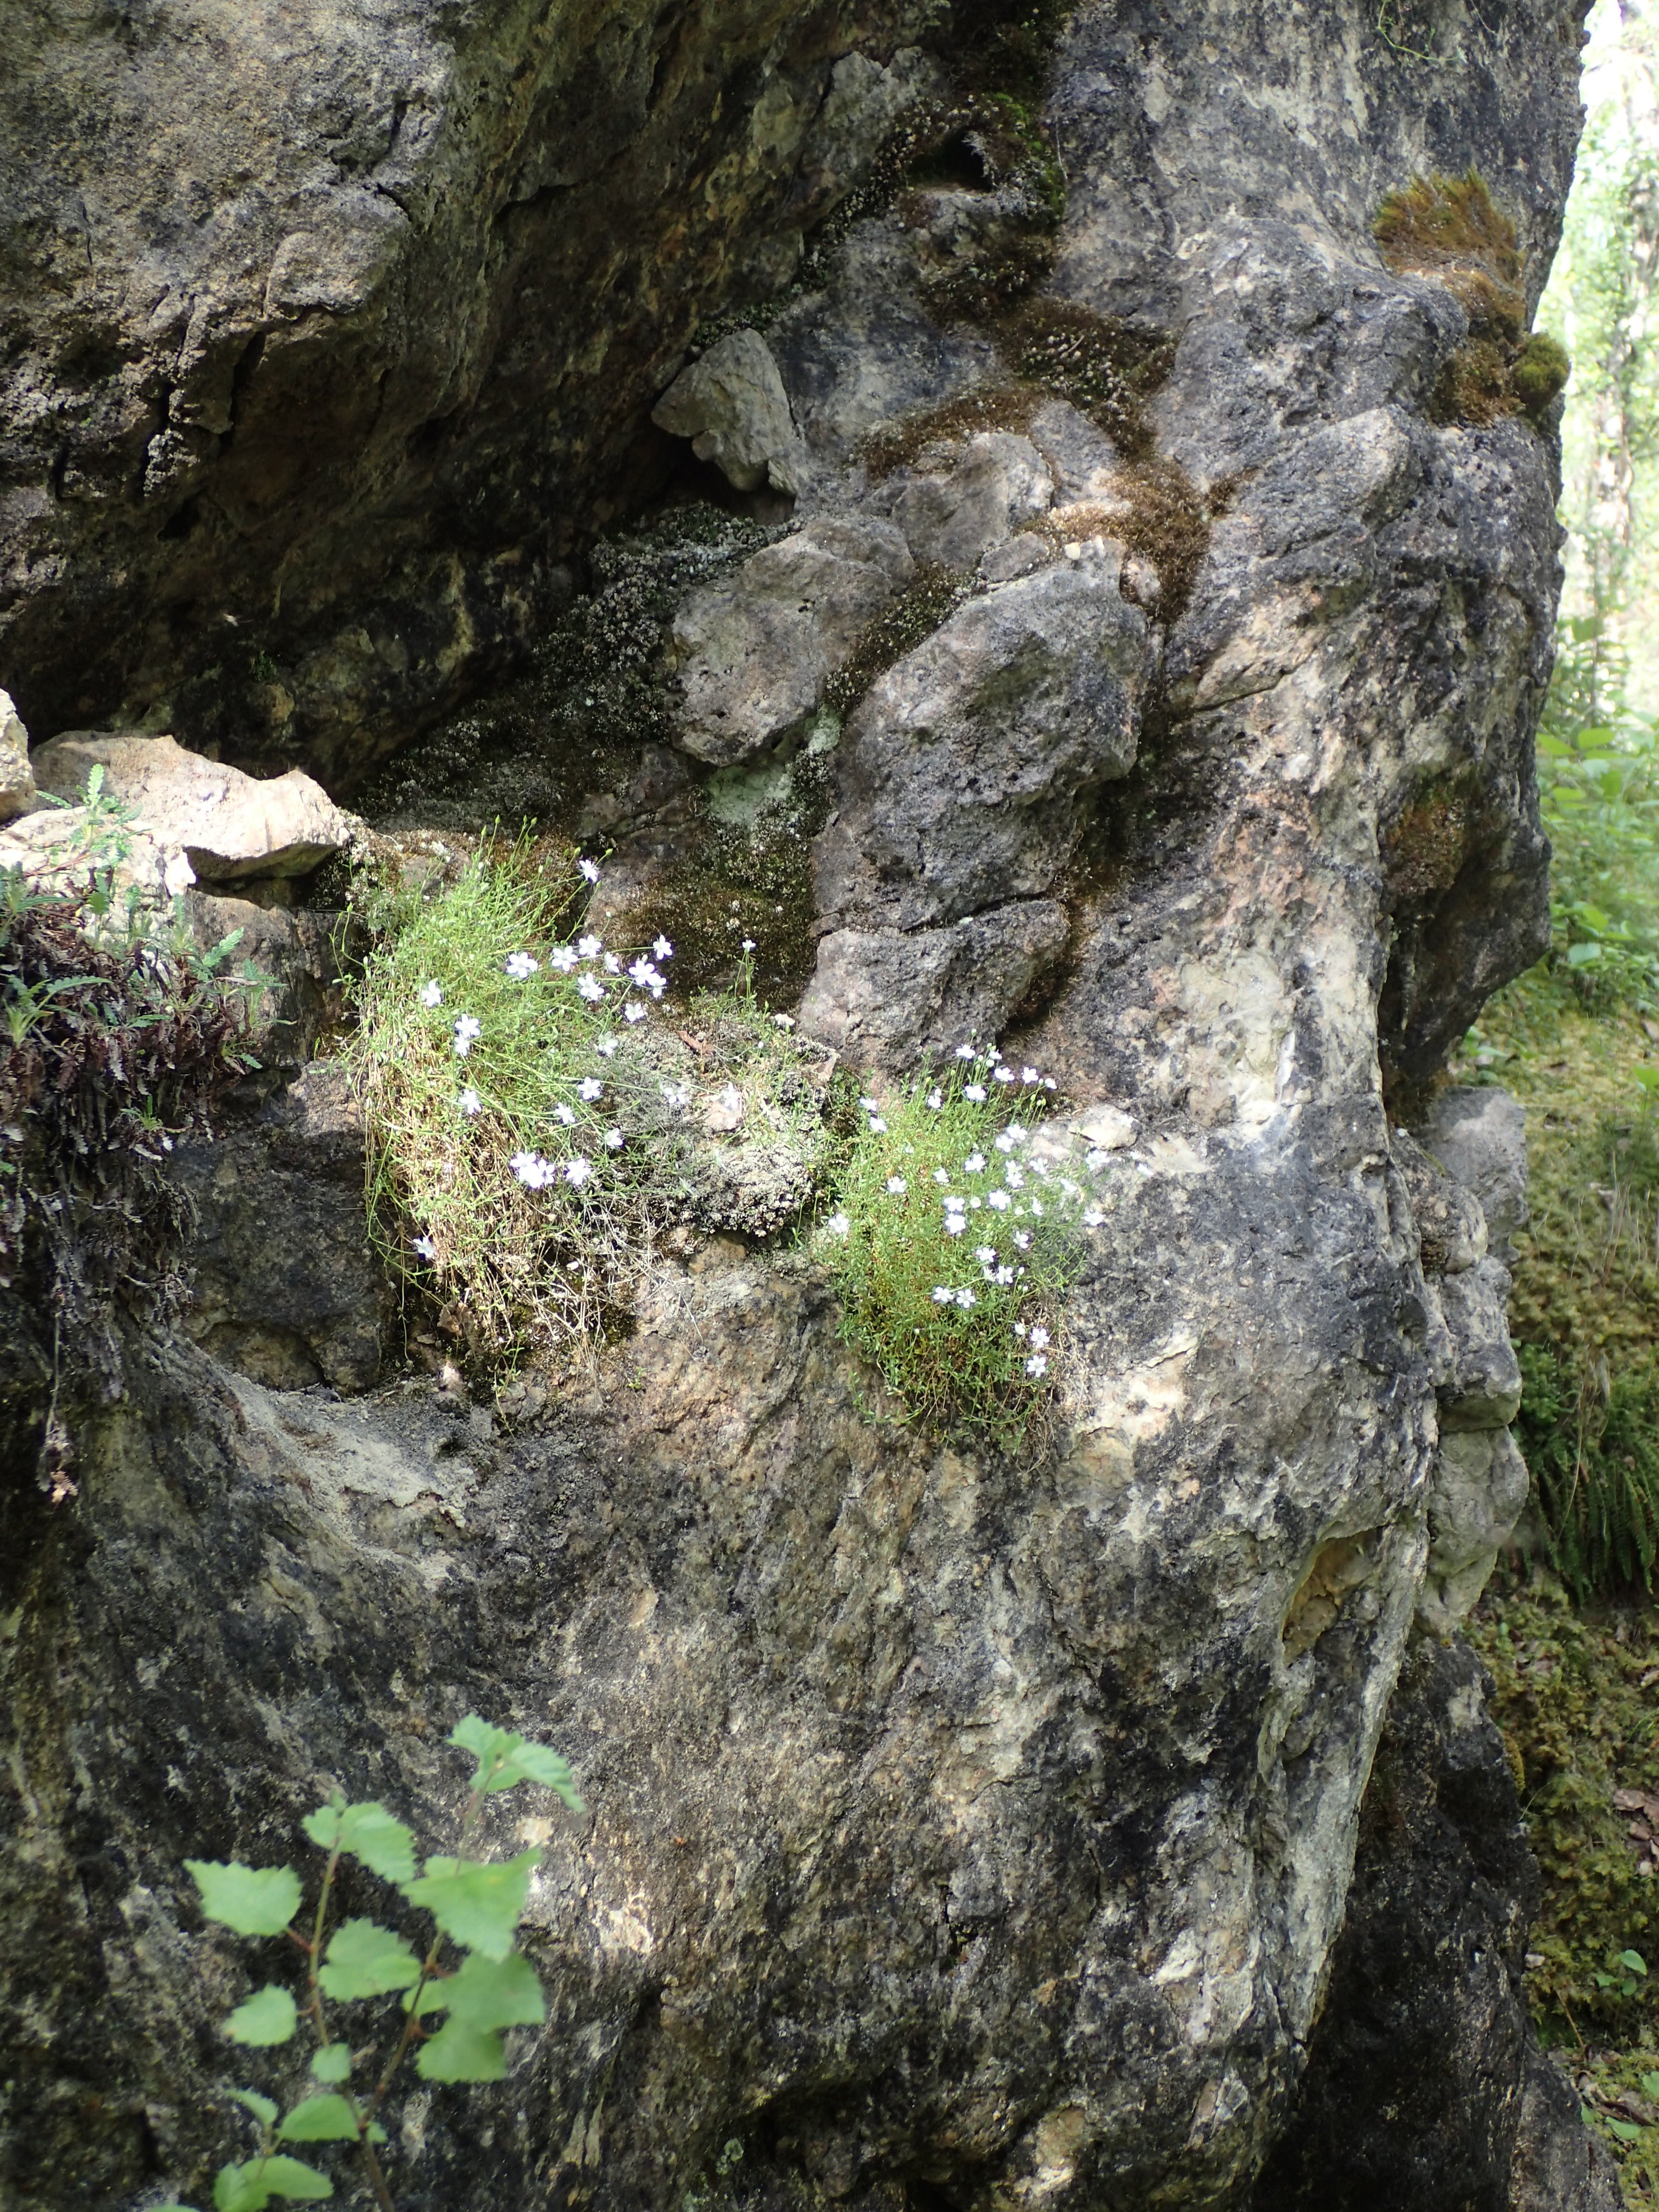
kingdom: Plantae
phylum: Tracheophyta
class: Magnoliopsida
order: Caryophyllales
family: Caryophyllaceae
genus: Arenaria
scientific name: Arenaria pseudofrigida
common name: Tundra sandwort
